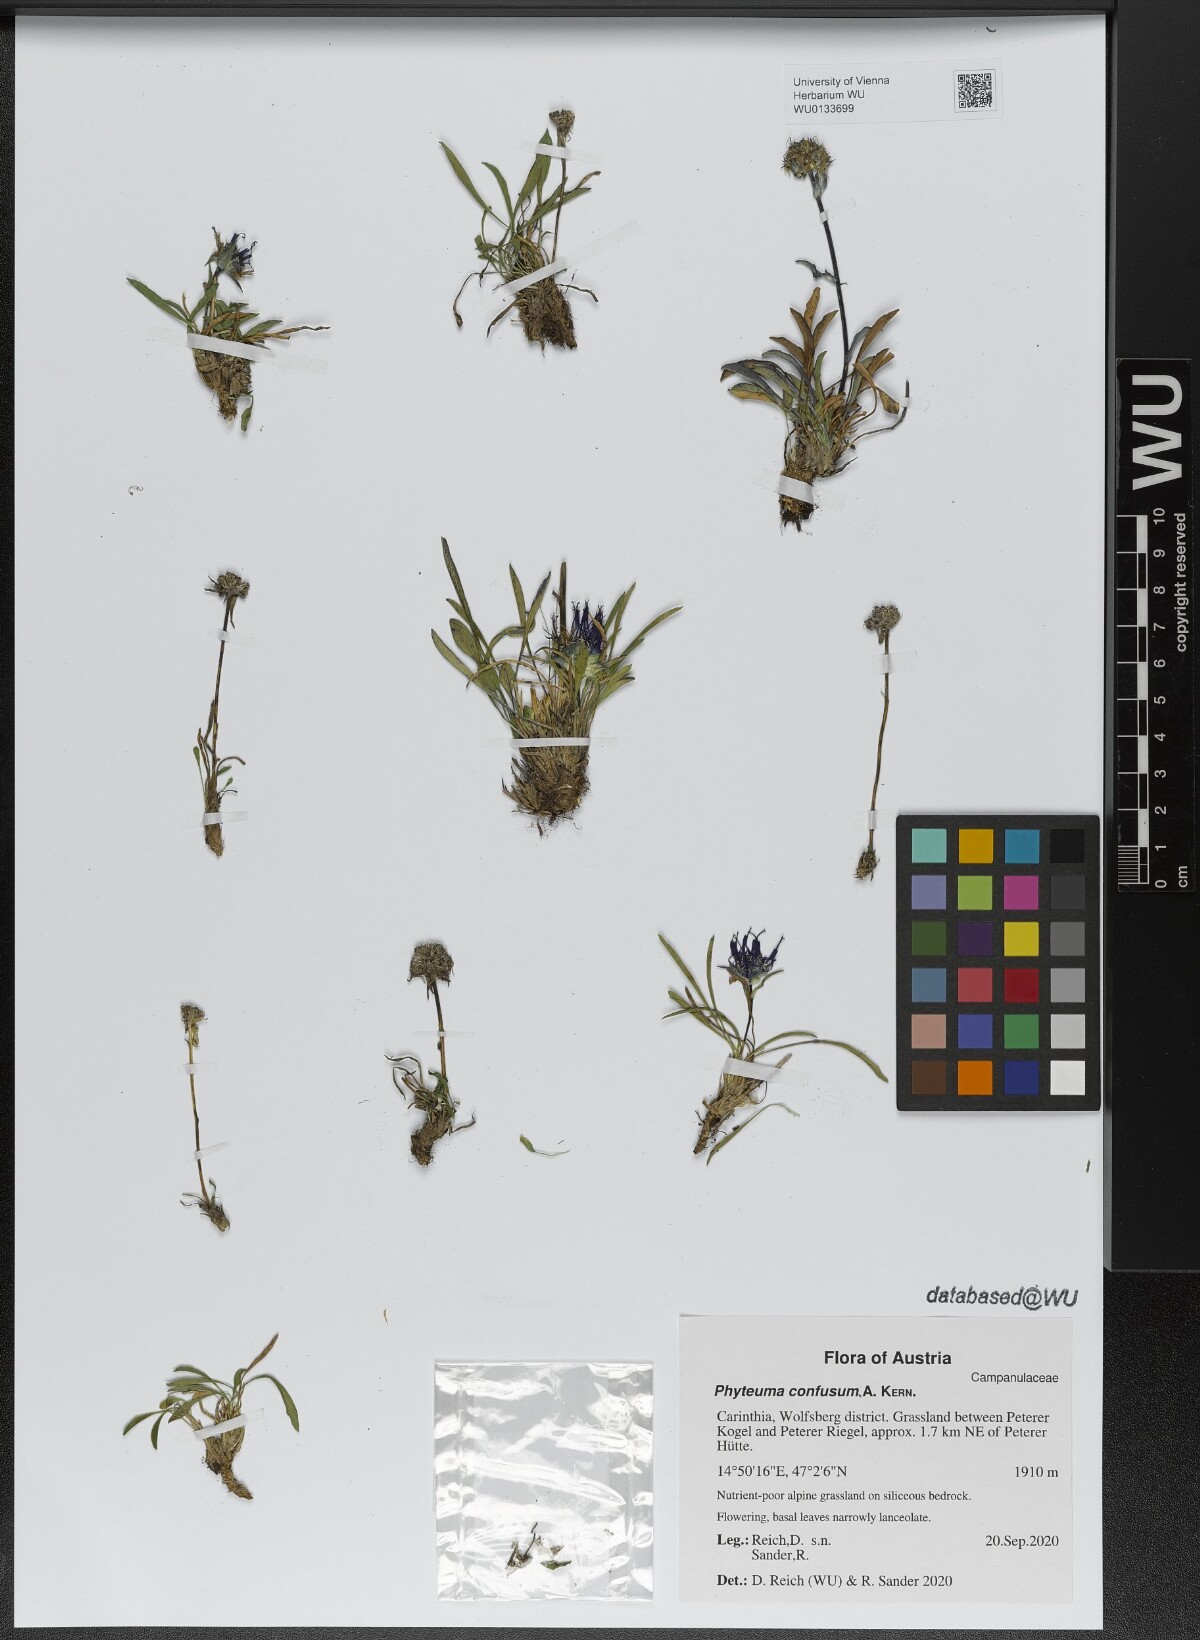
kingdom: Plantae
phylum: Tracheophyta
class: Magnoliopsida
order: Asterales
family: Campanulaceae
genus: Phyteuma
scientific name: Phyteuma confusum
